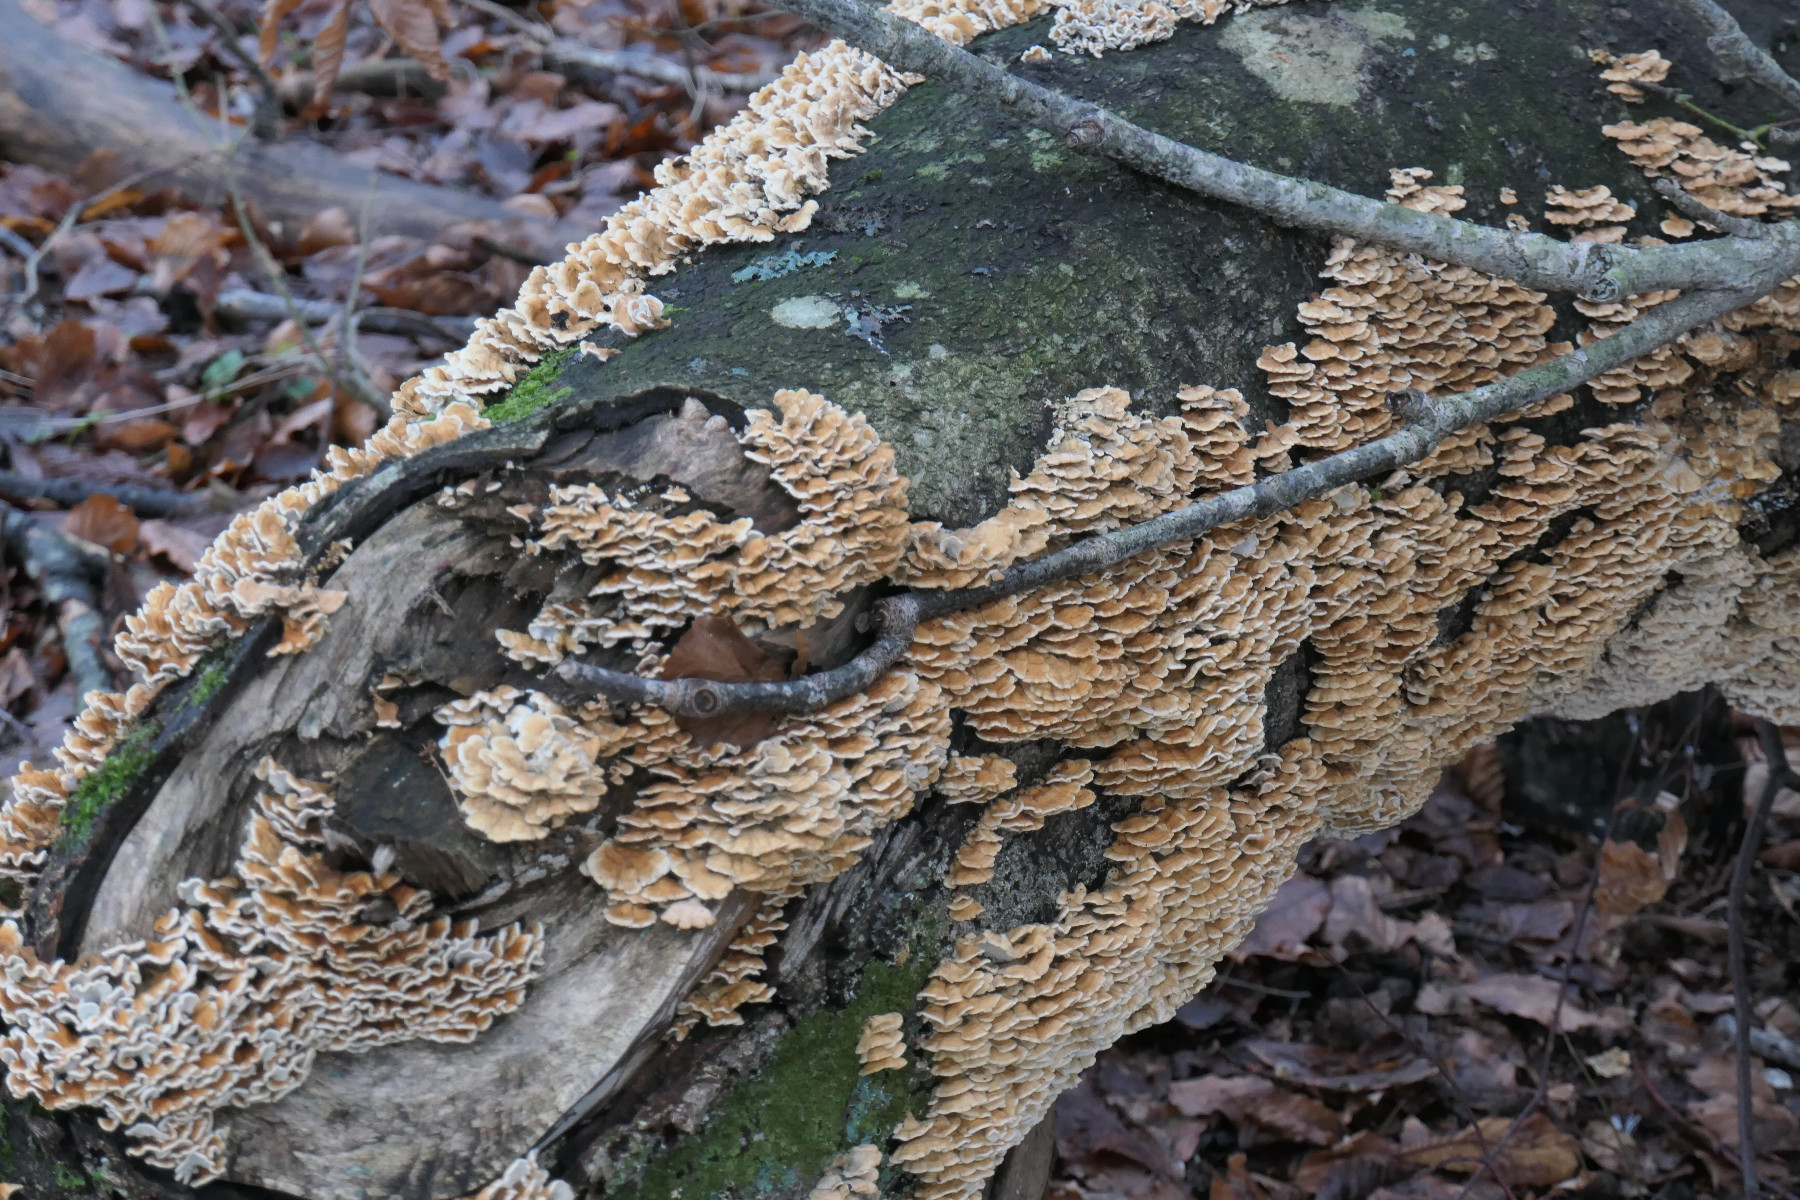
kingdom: Fungi
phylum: Basidiomycota
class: Agaricomycetes
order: Amylocorticiales
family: Amylocorticiaceae
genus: Plicaturopsis
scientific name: Plicaturopsis crispa
